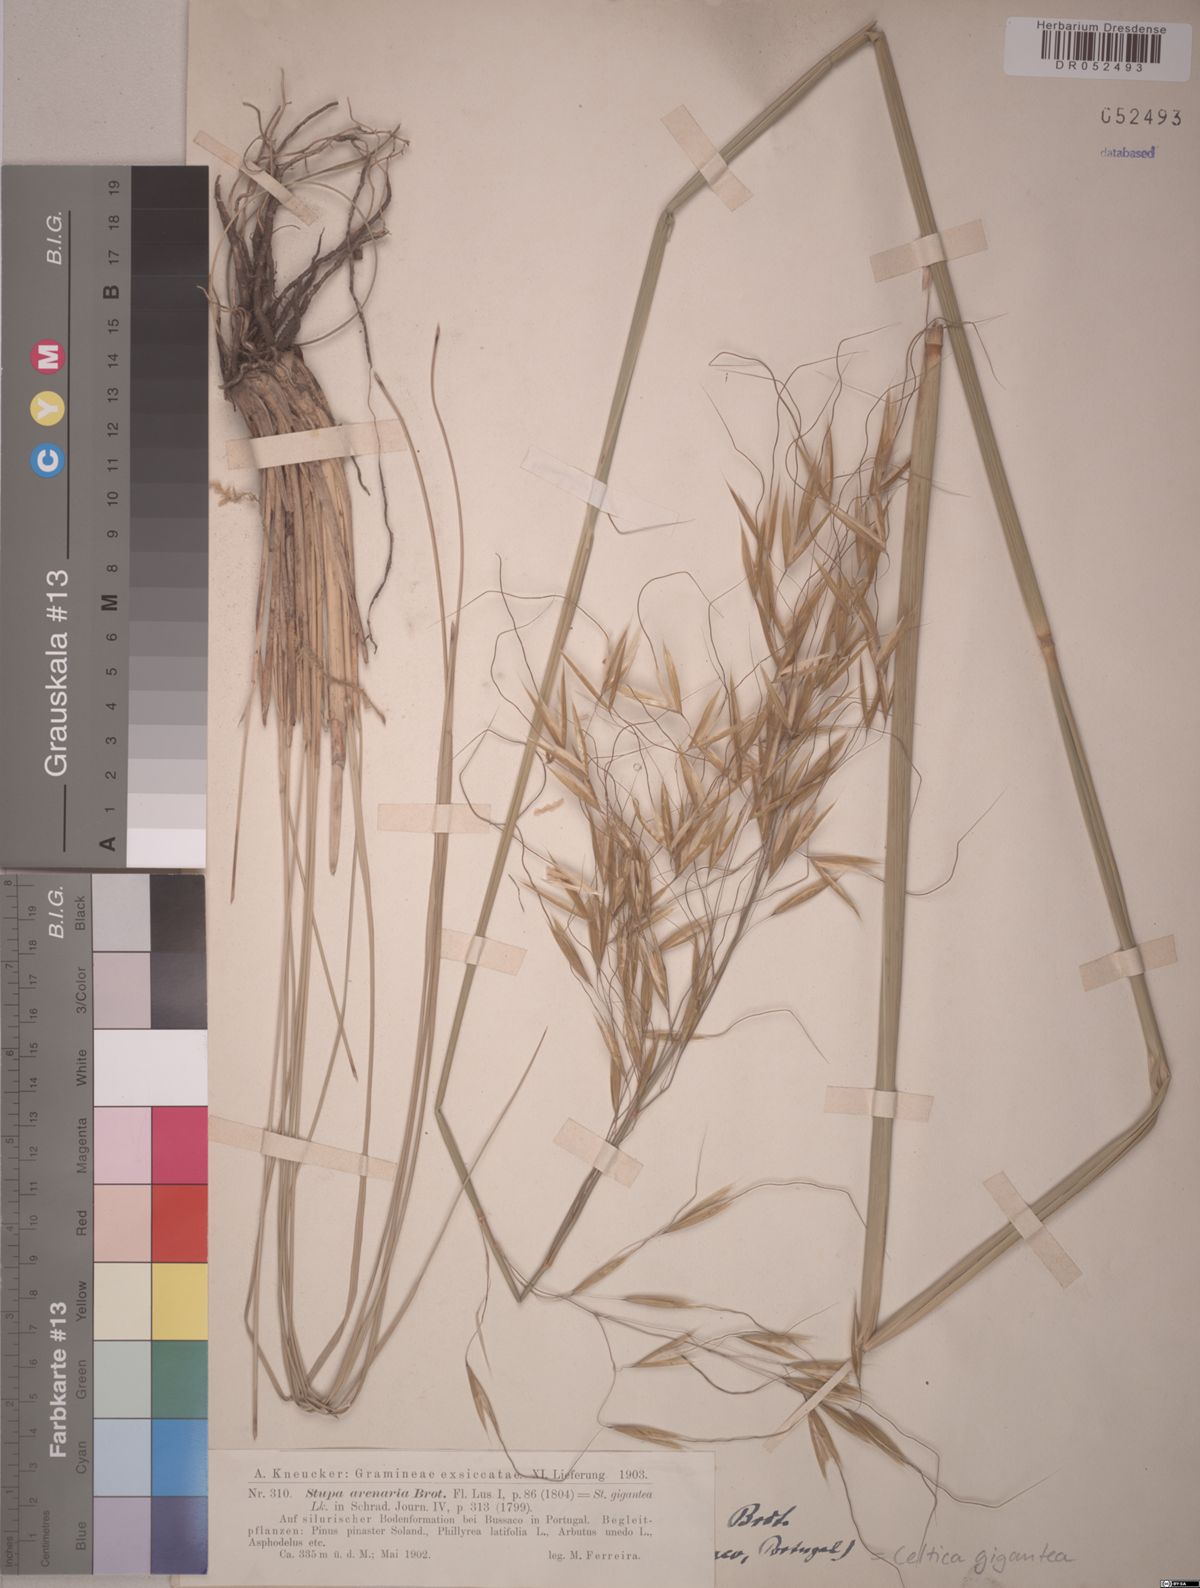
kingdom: Plantae
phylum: Tracheophyta
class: Liliopsida
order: Poales
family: Poaceae
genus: Celtica
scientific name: Celtica gigantea
